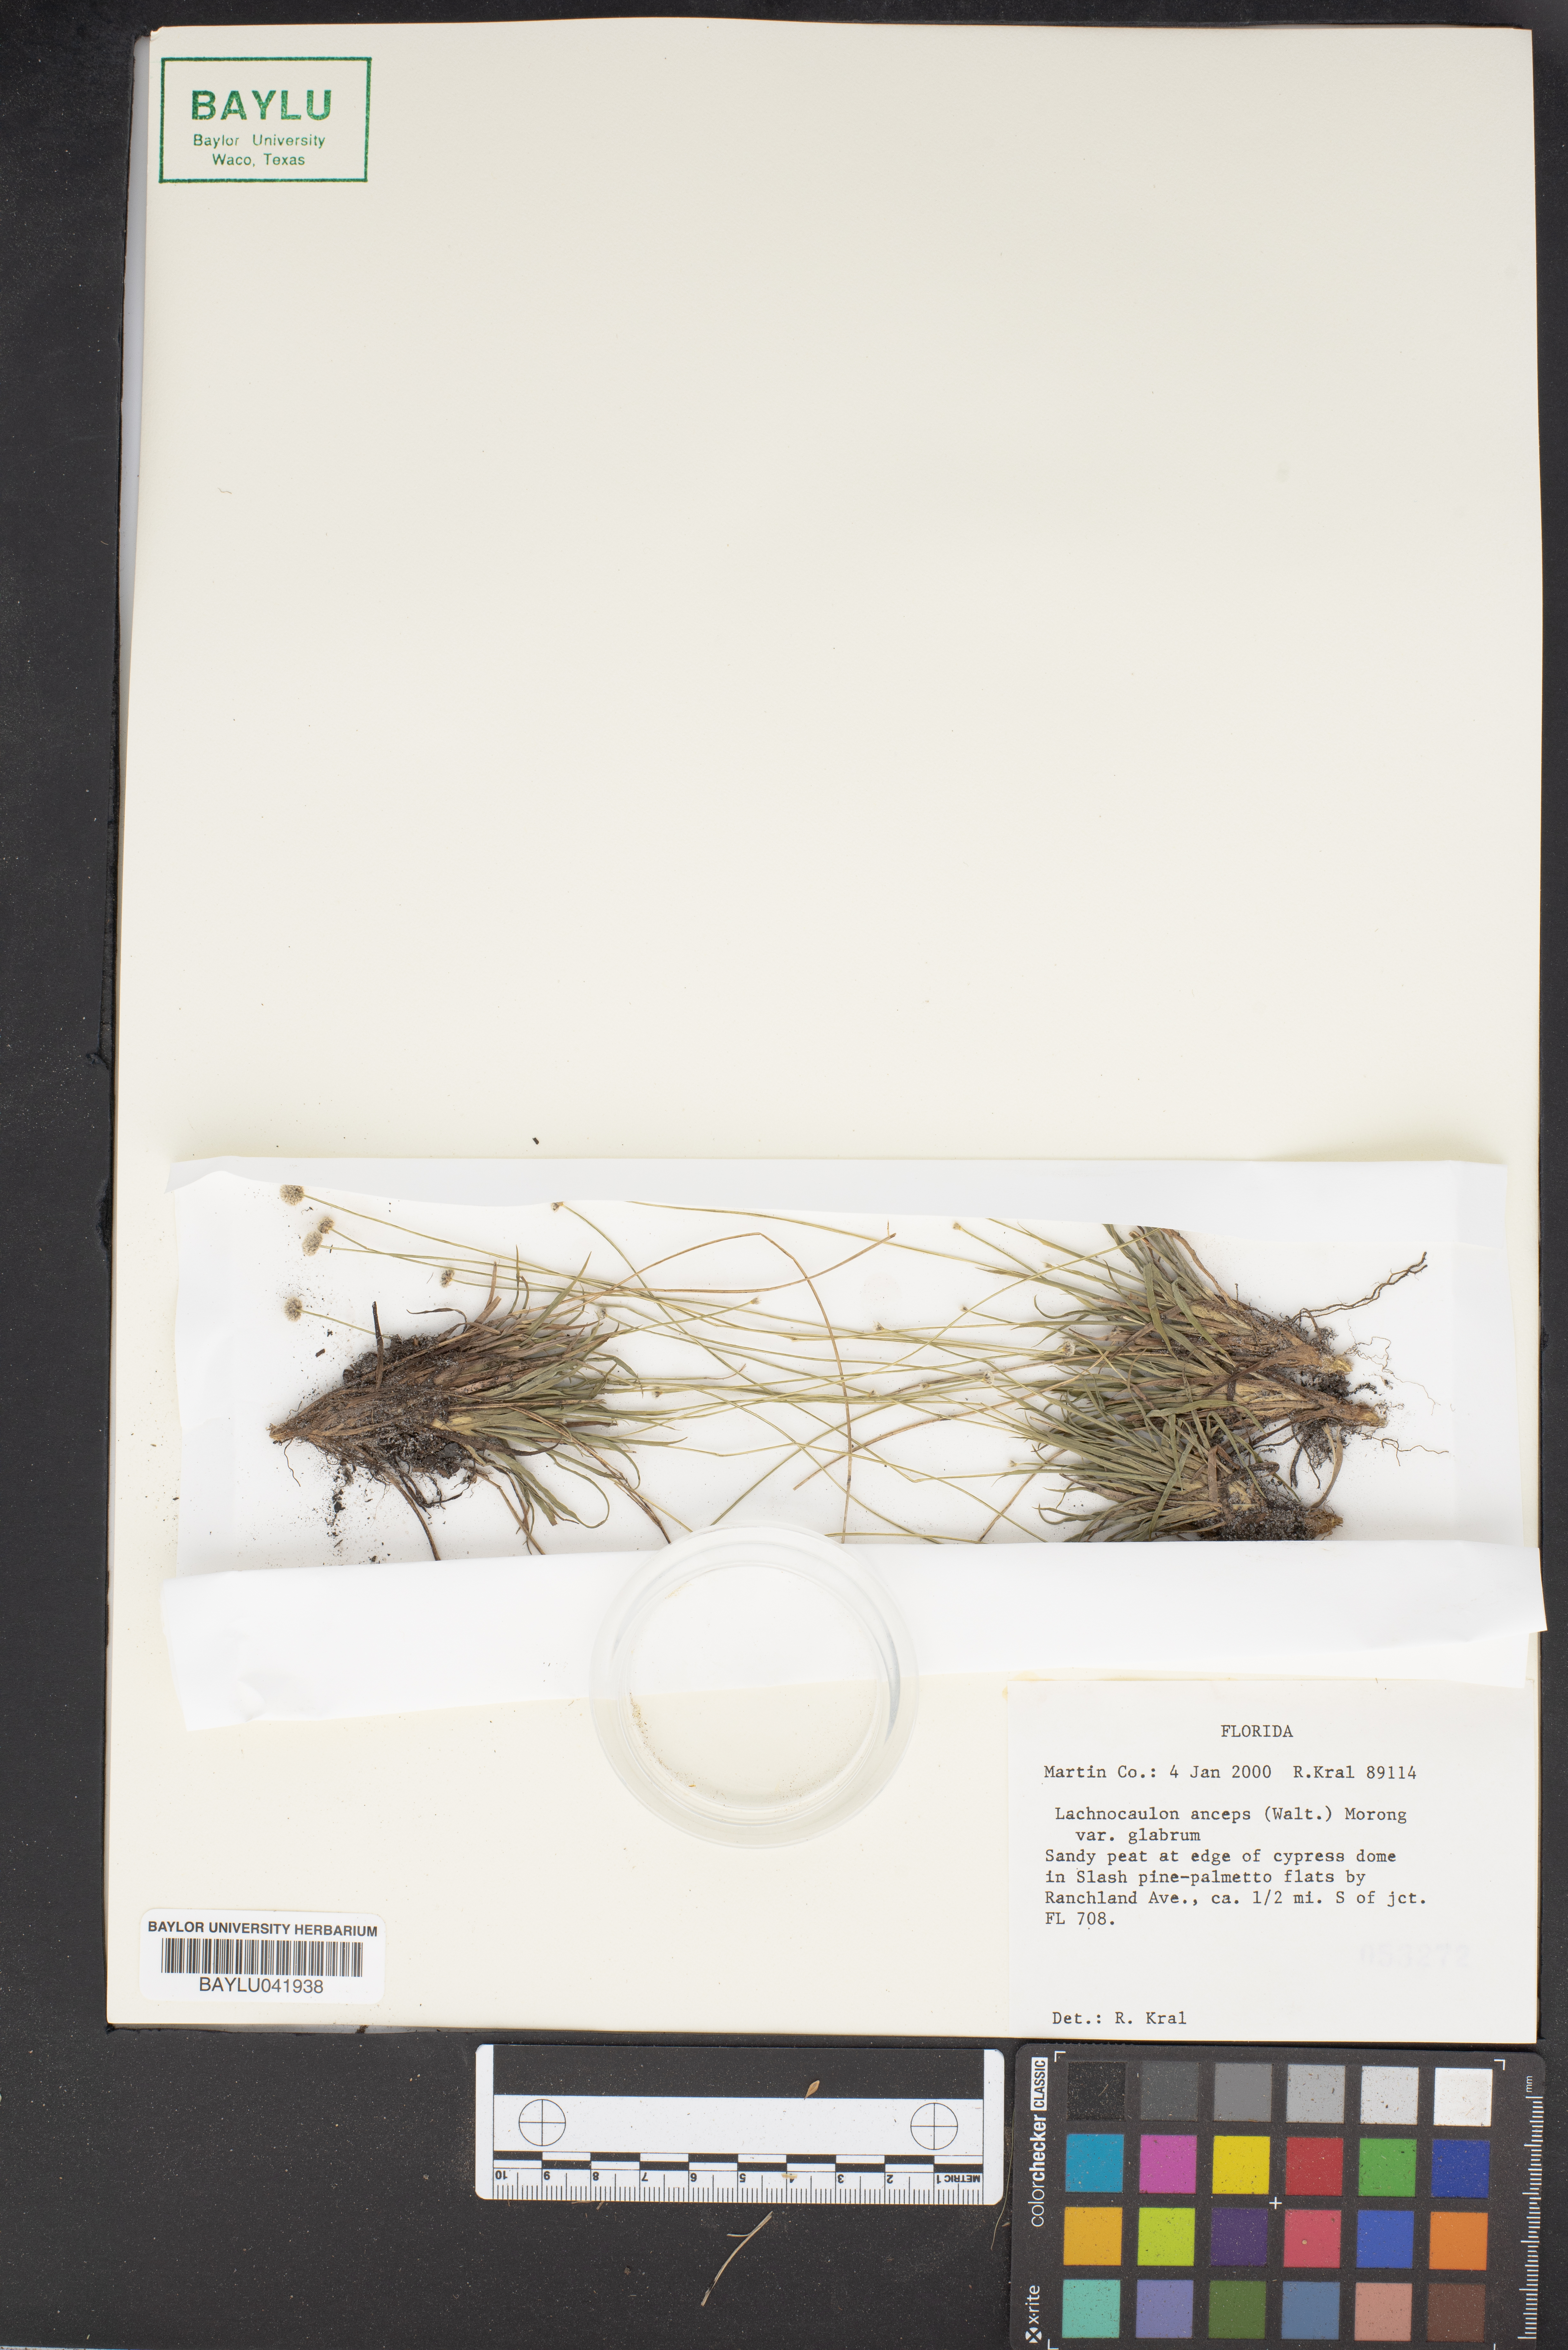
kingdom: Plantae
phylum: Tracheophyta
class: Liliopsida
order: Poales
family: Eriocaulaceae
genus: Paepalanthus
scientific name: Paepalanthus anceps
